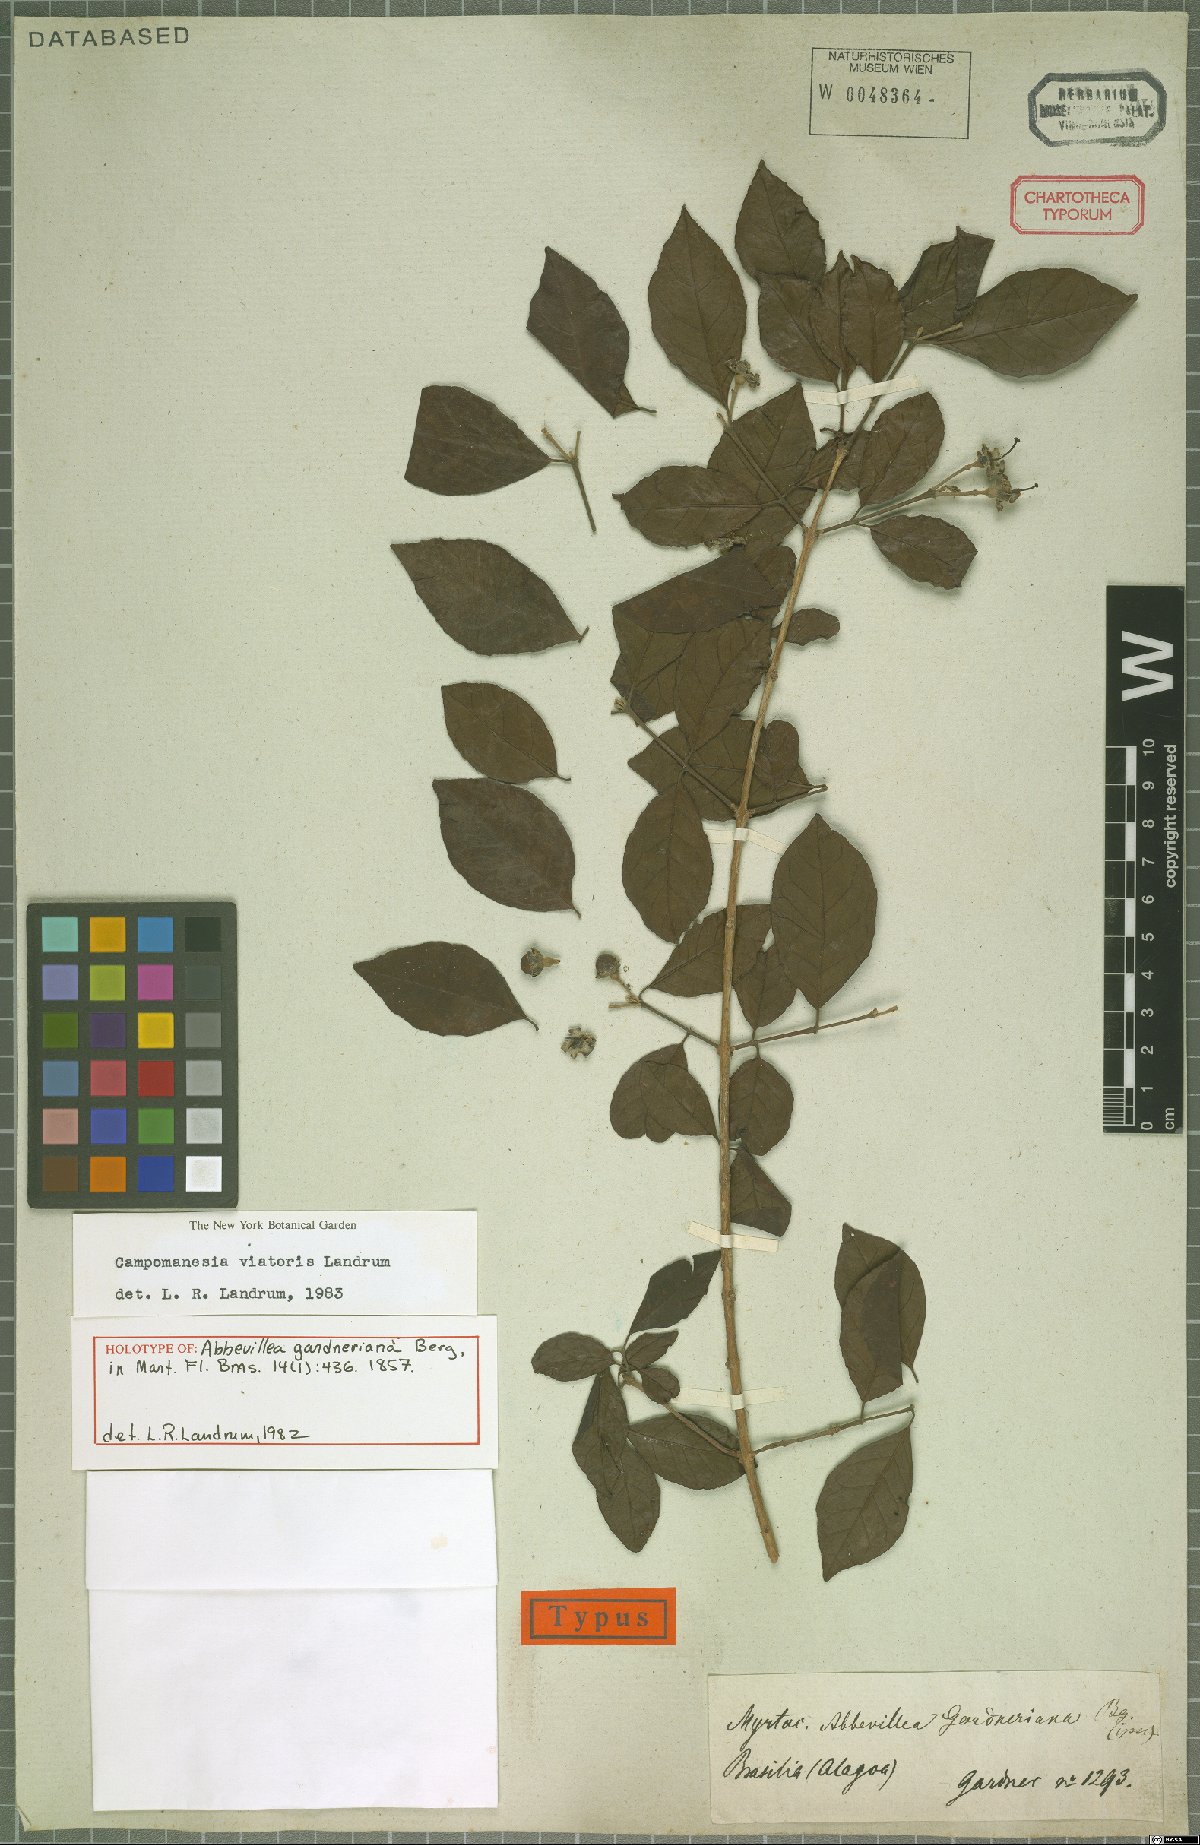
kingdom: Plantae
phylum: Tracheophyta
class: Magnoliopsida
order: Myrtales
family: Myrtaceae
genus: Campomanesia
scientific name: Campomanesia ilhoensis
